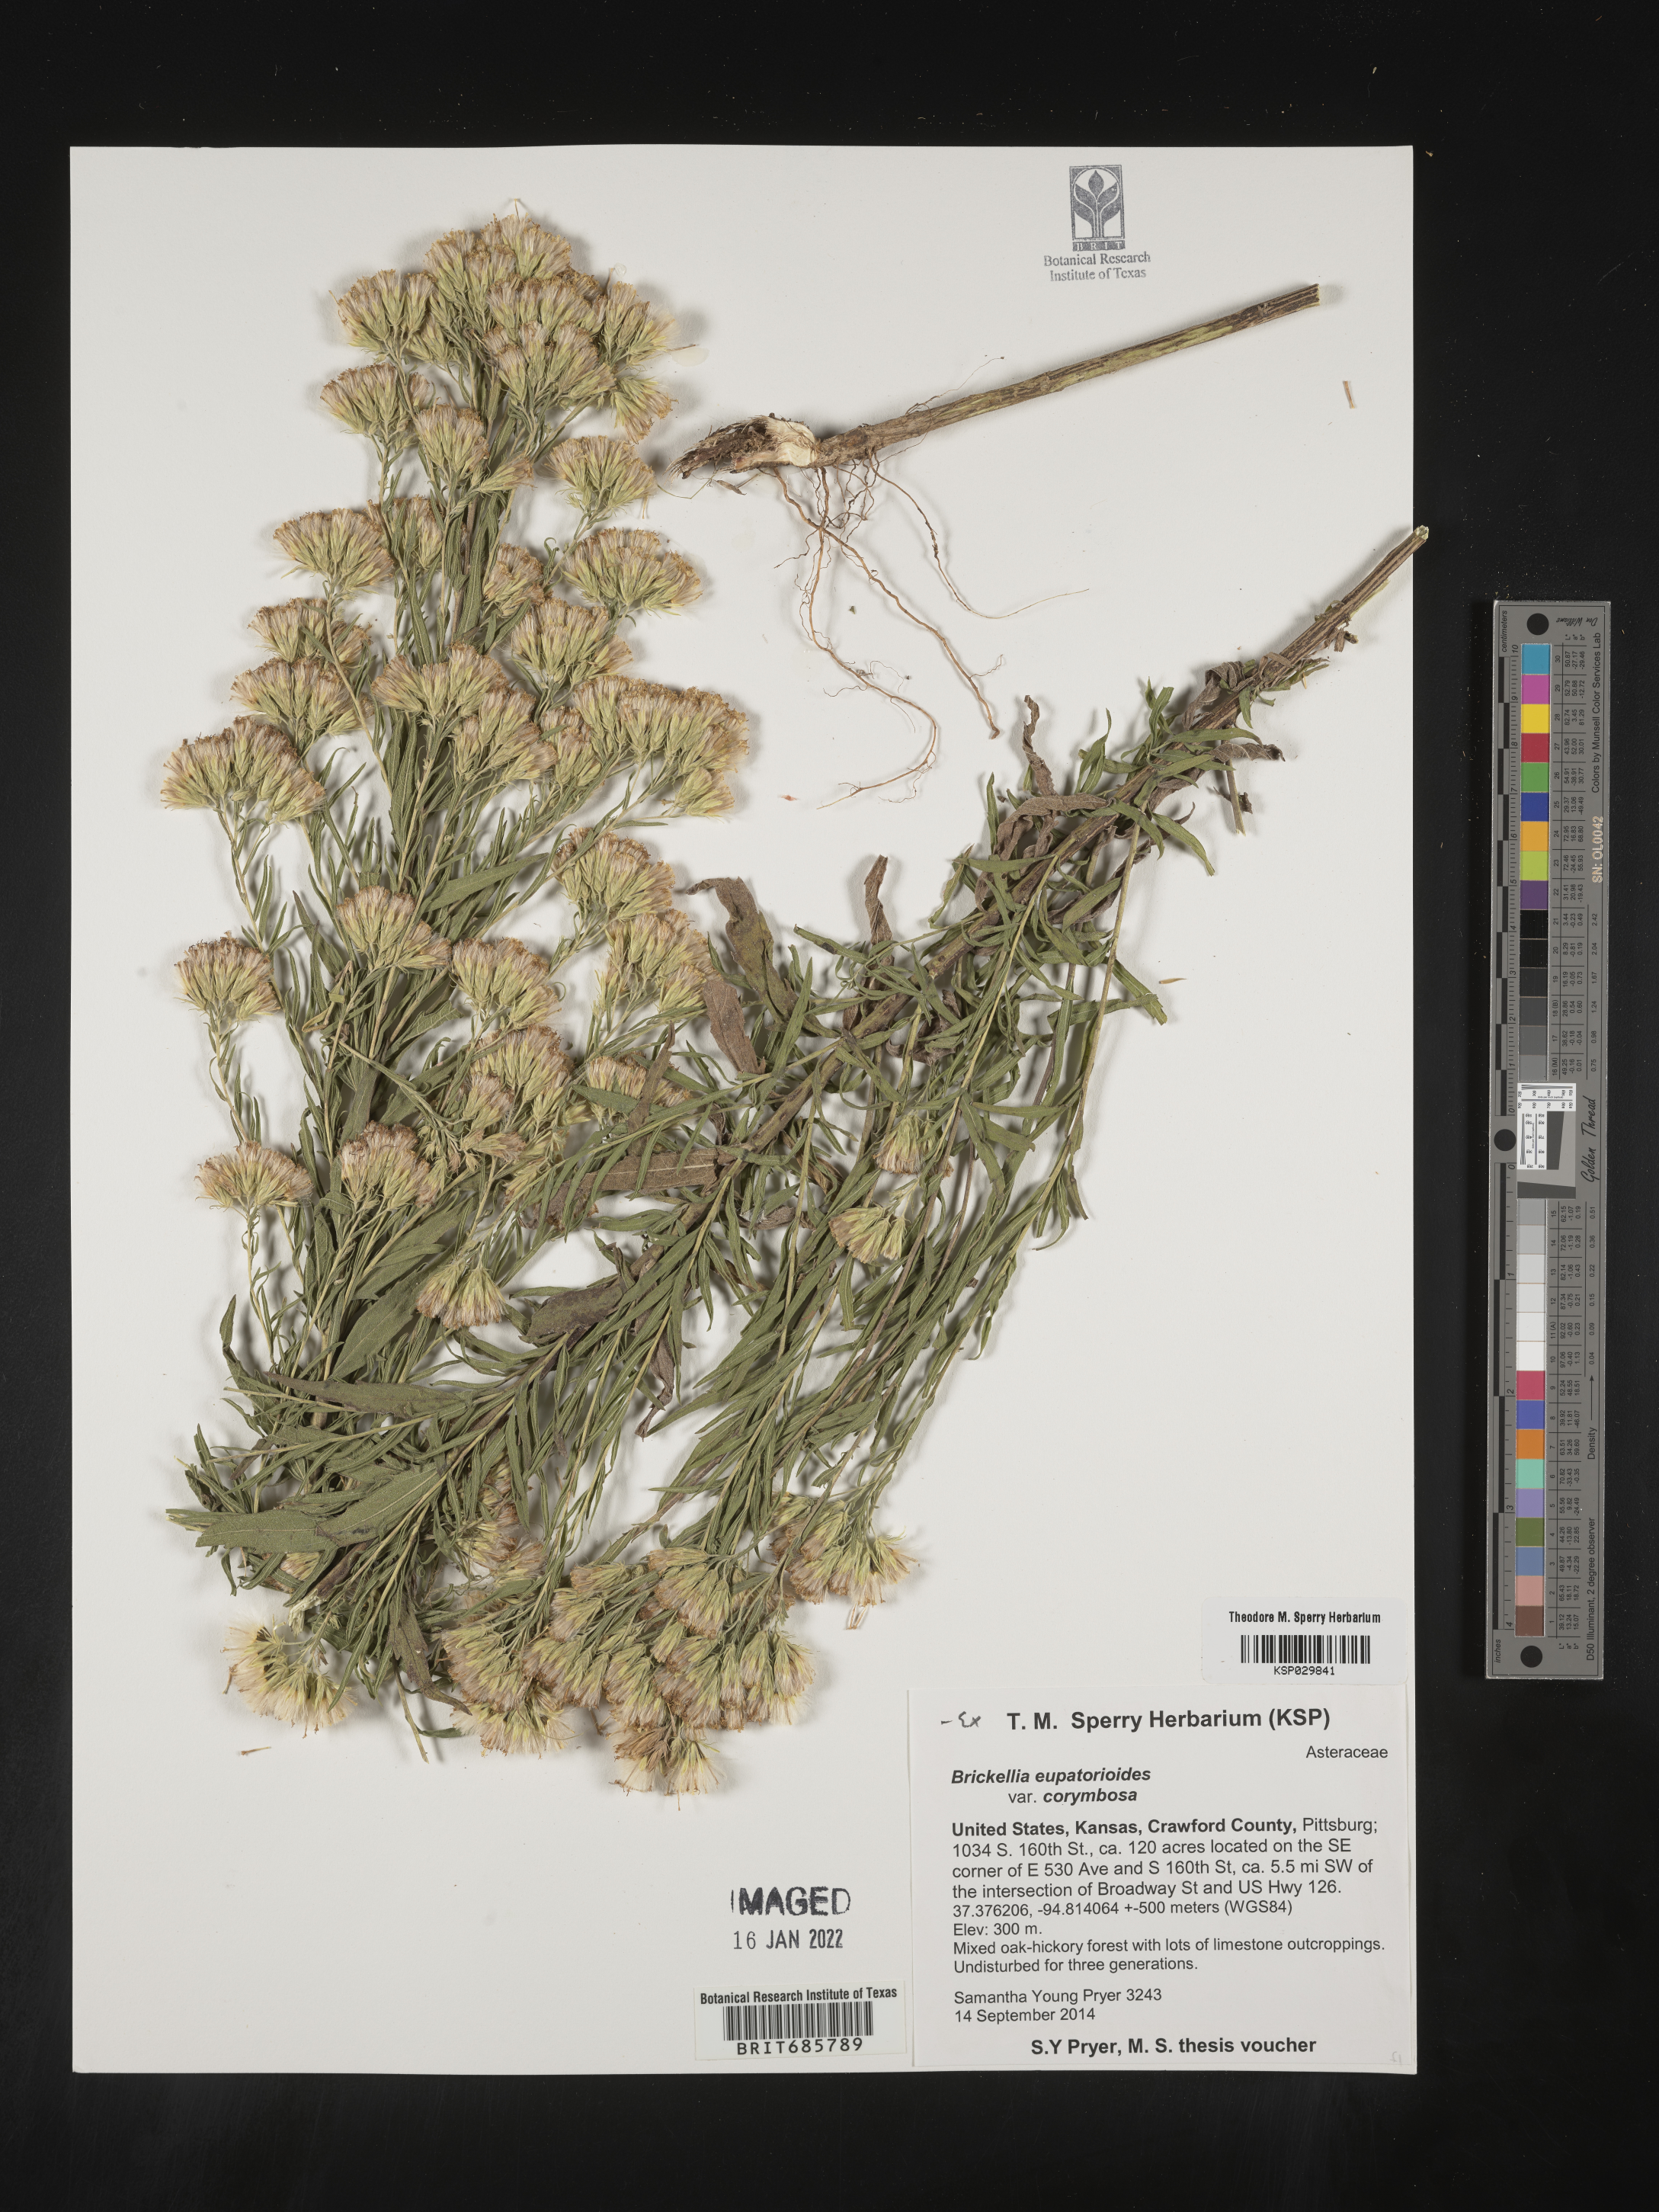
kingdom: Plantae
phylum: Tracheophyta
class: Magnoliopsida
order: Asterales
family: Asteraceae
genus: Brickellia
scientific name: Brickellia eupatorioides
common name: False boneset
